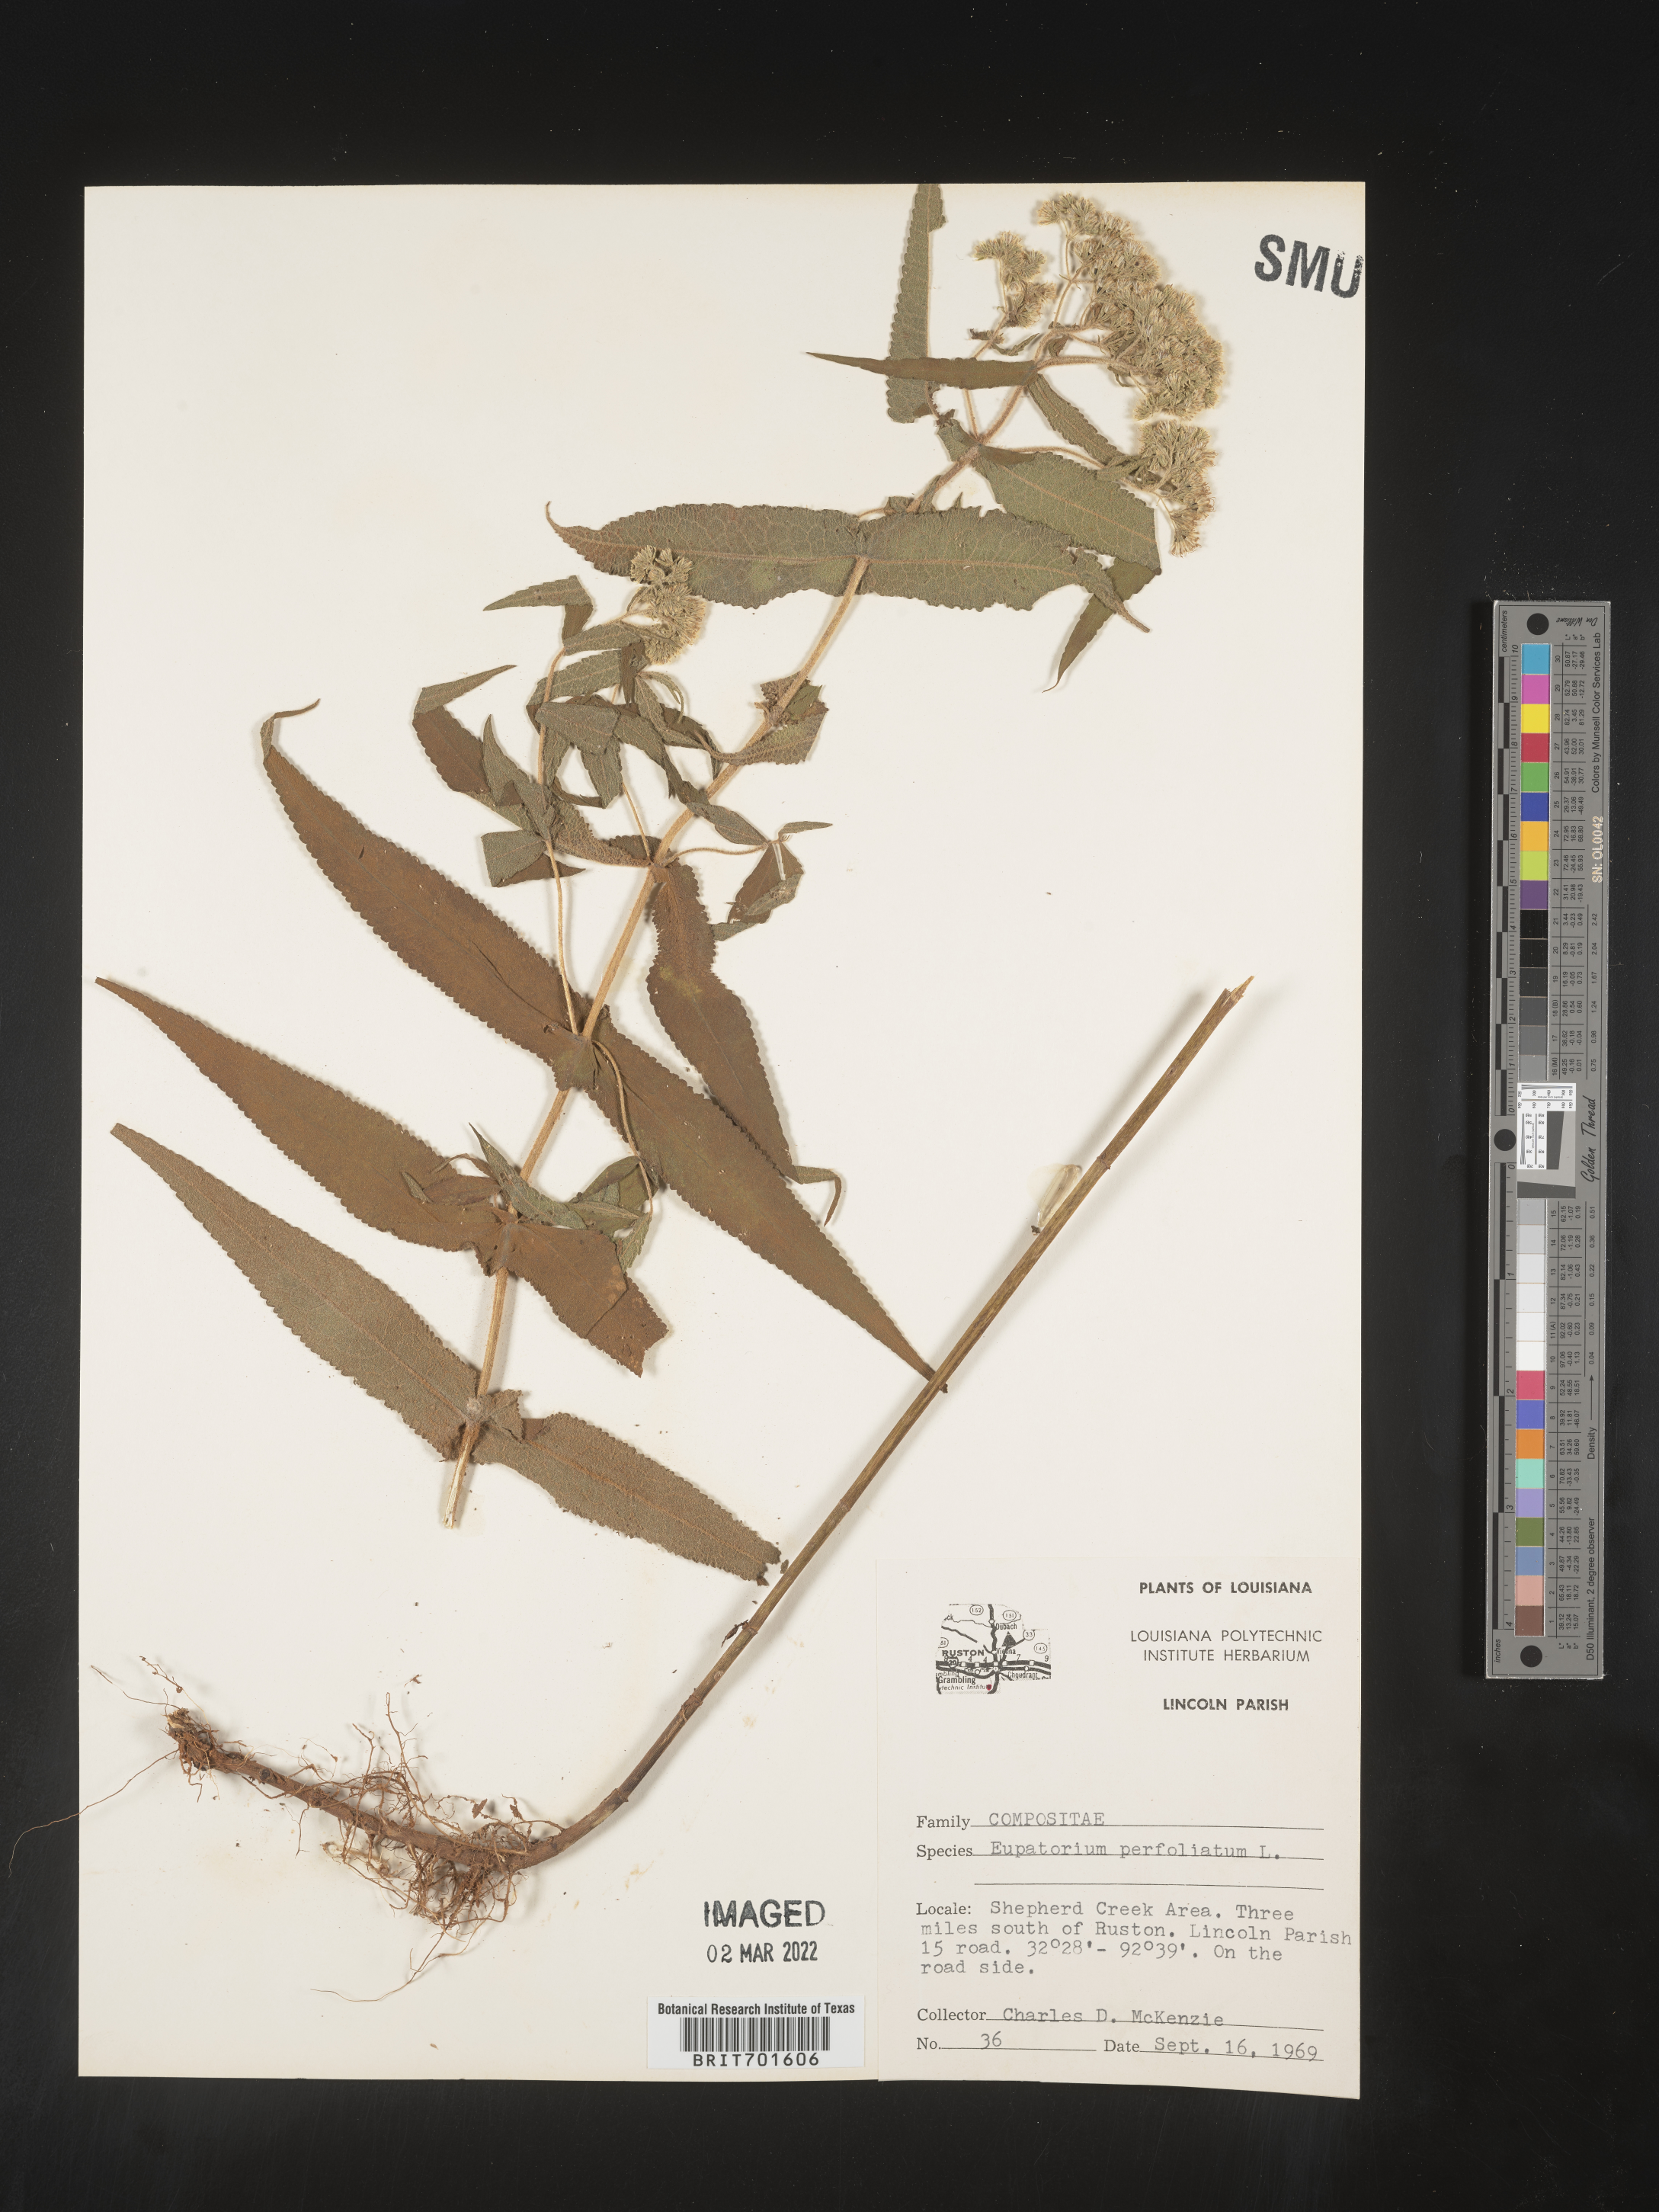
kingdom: Plantae
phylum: Tracheophyta
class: Magnoliopsida
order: Asterales
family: Asteraceae
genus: Eupatorium
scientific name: Eupatorium perfoliatum
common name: Boneset
